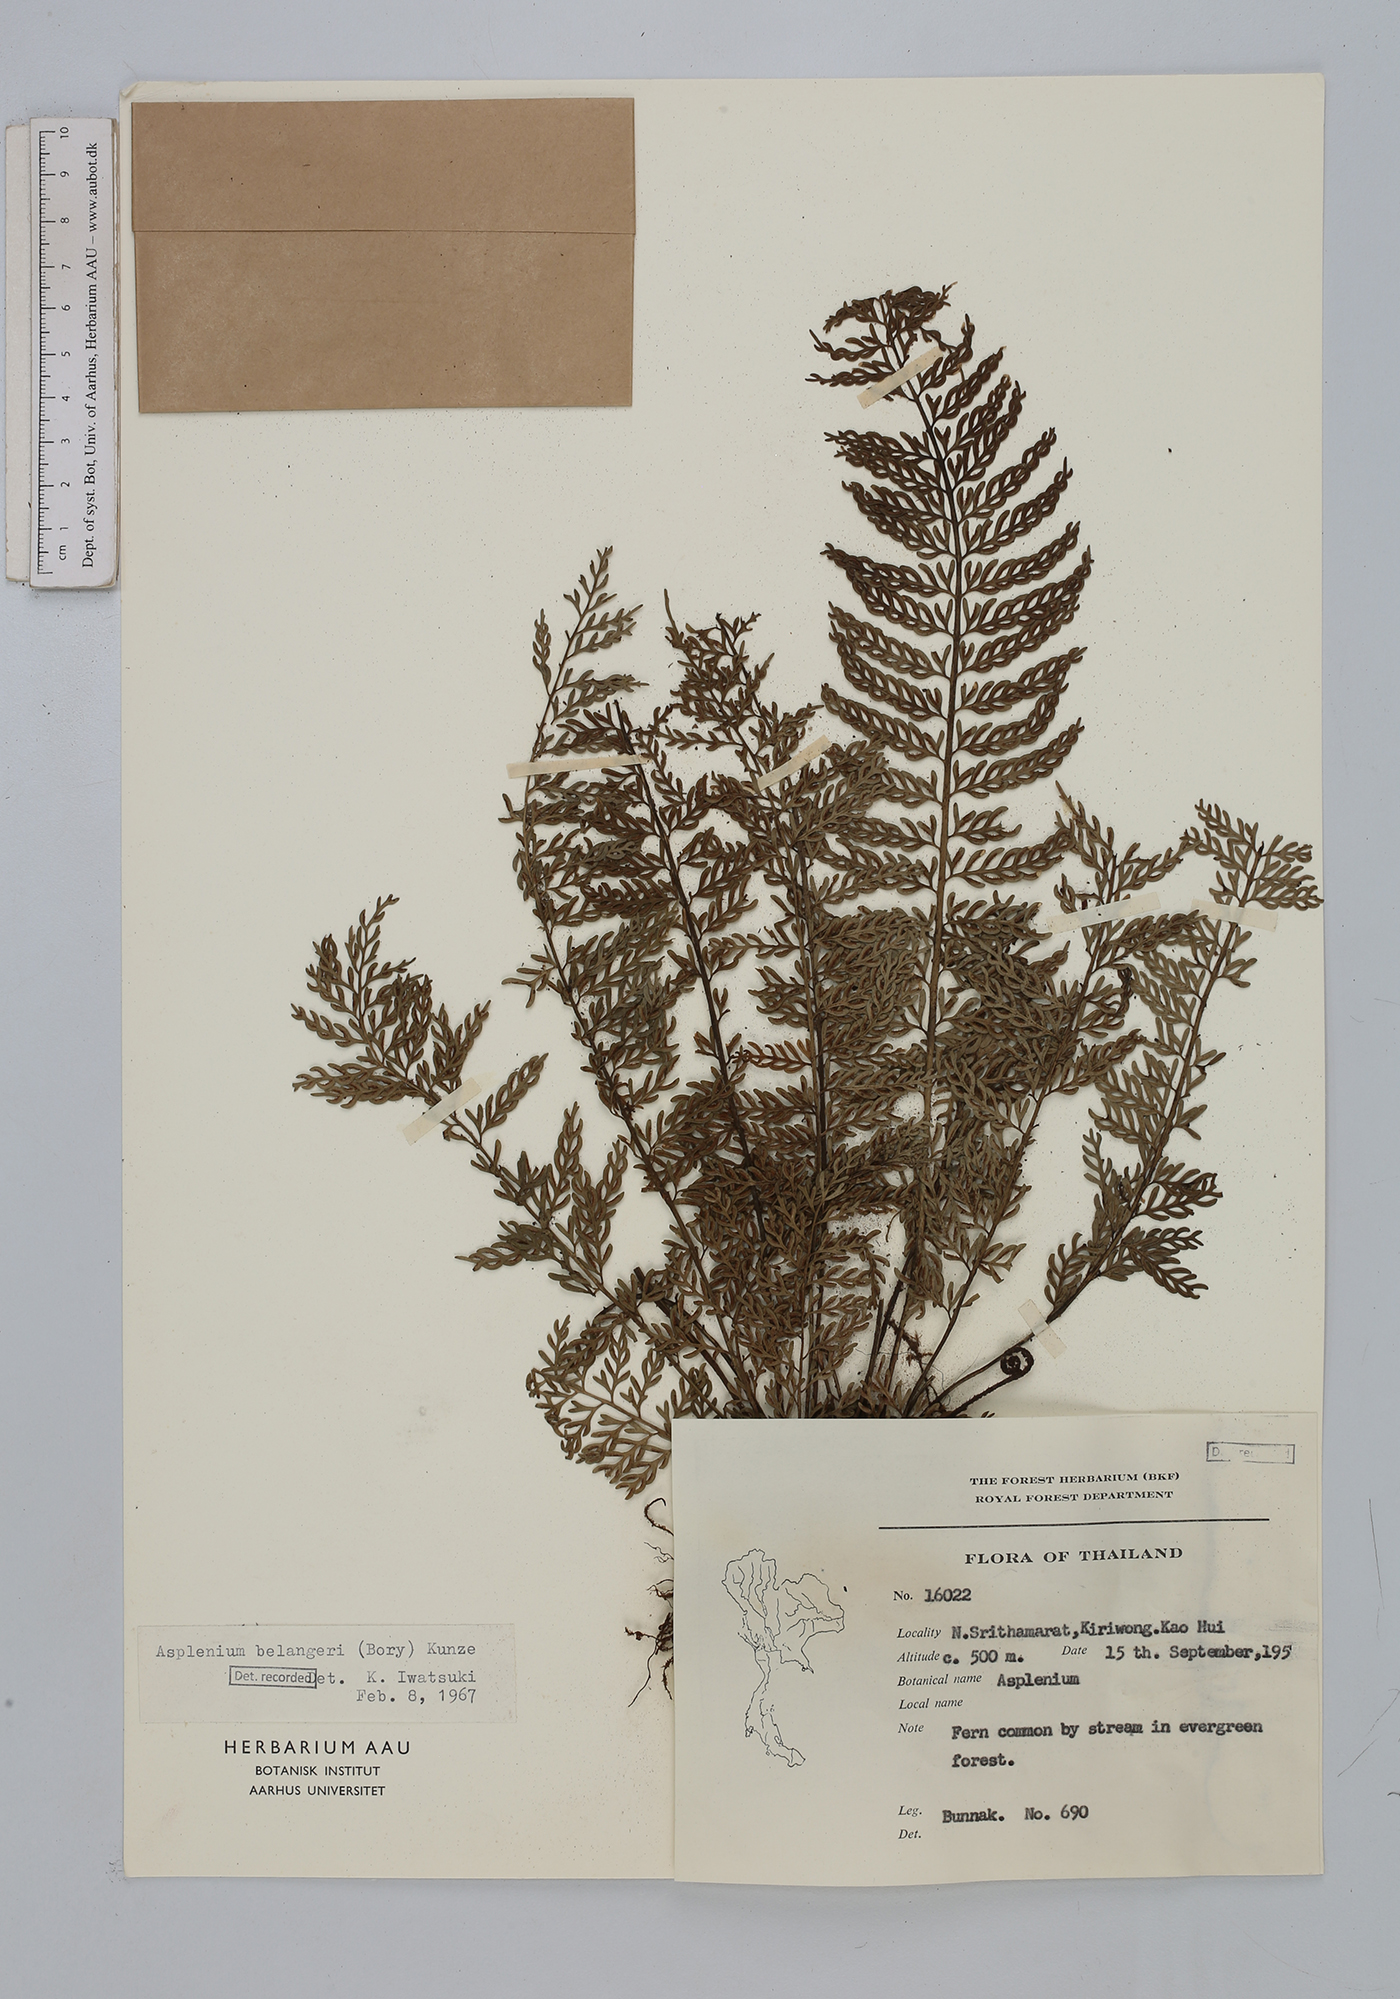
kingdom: Plantae
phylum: Tracheophyta
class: Polypodiopsida
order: Polypodiales
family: Aspleniaceae
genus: Asplenium
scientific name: Asplenium thunbergii
